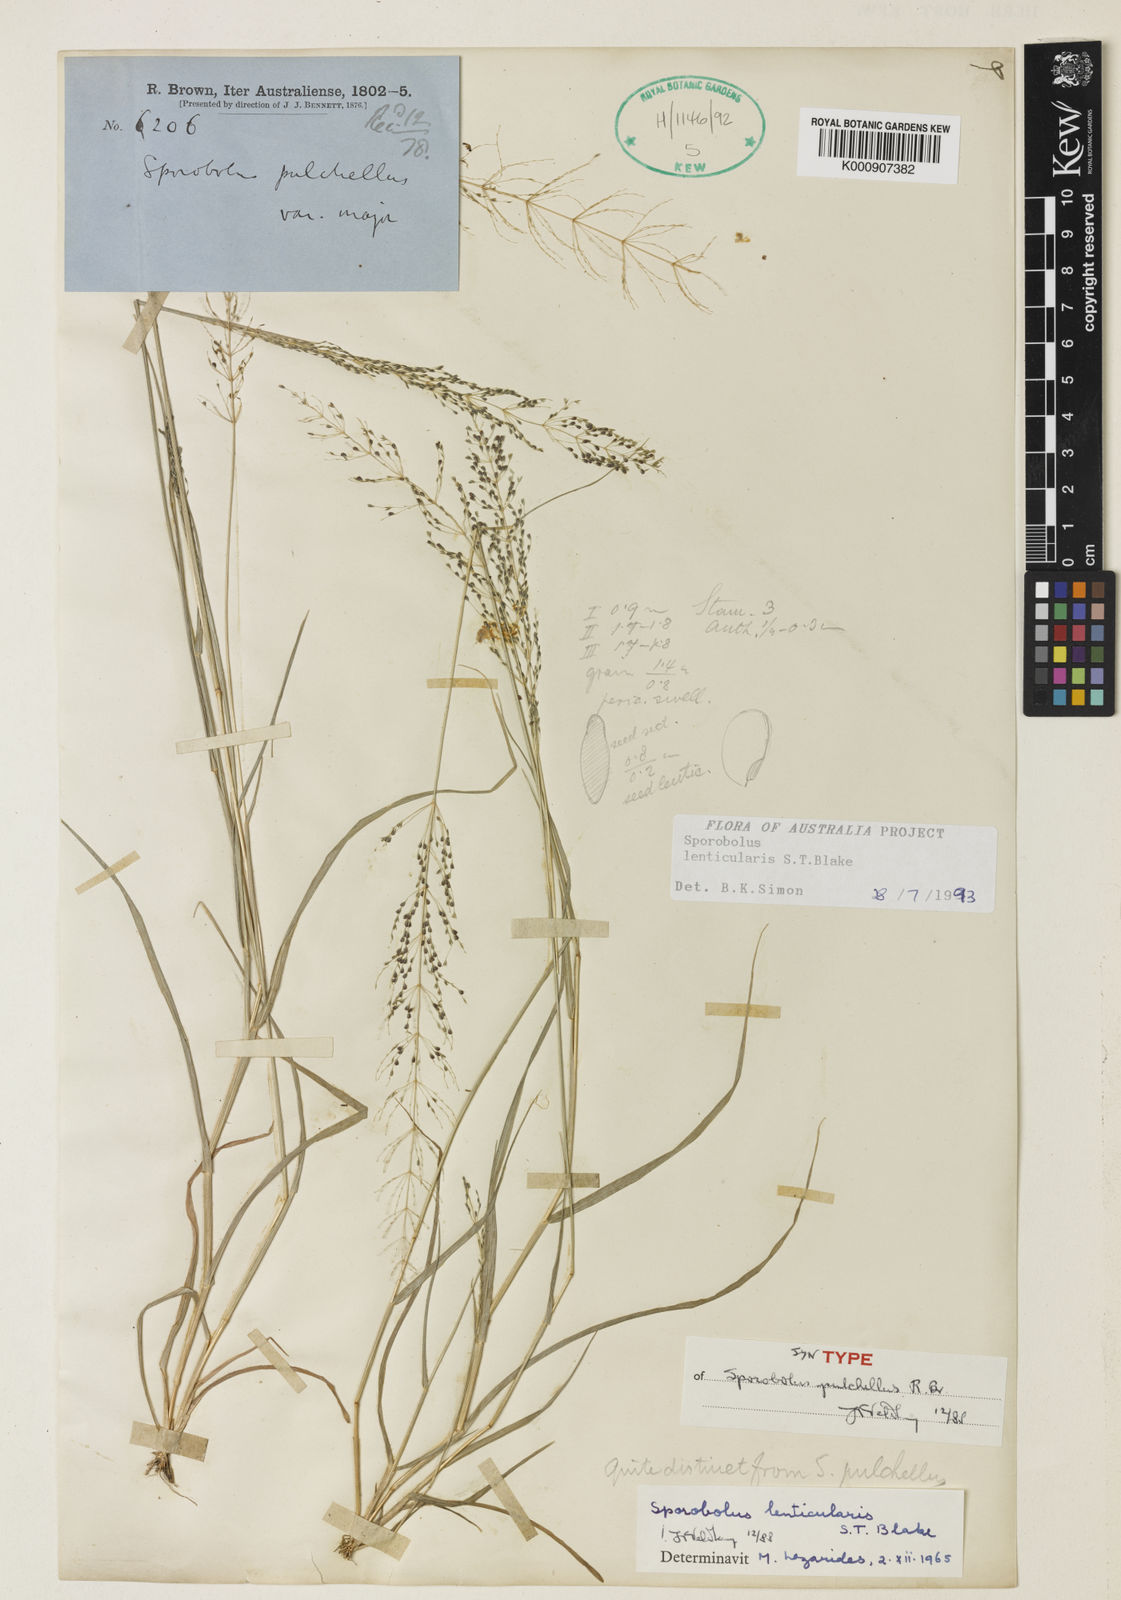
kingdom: Plantae
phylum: Tracheophyta
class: Liliopsida
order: Poales
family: Poaceae
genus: Sporobolus
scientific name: Sporobolus lenticularis
